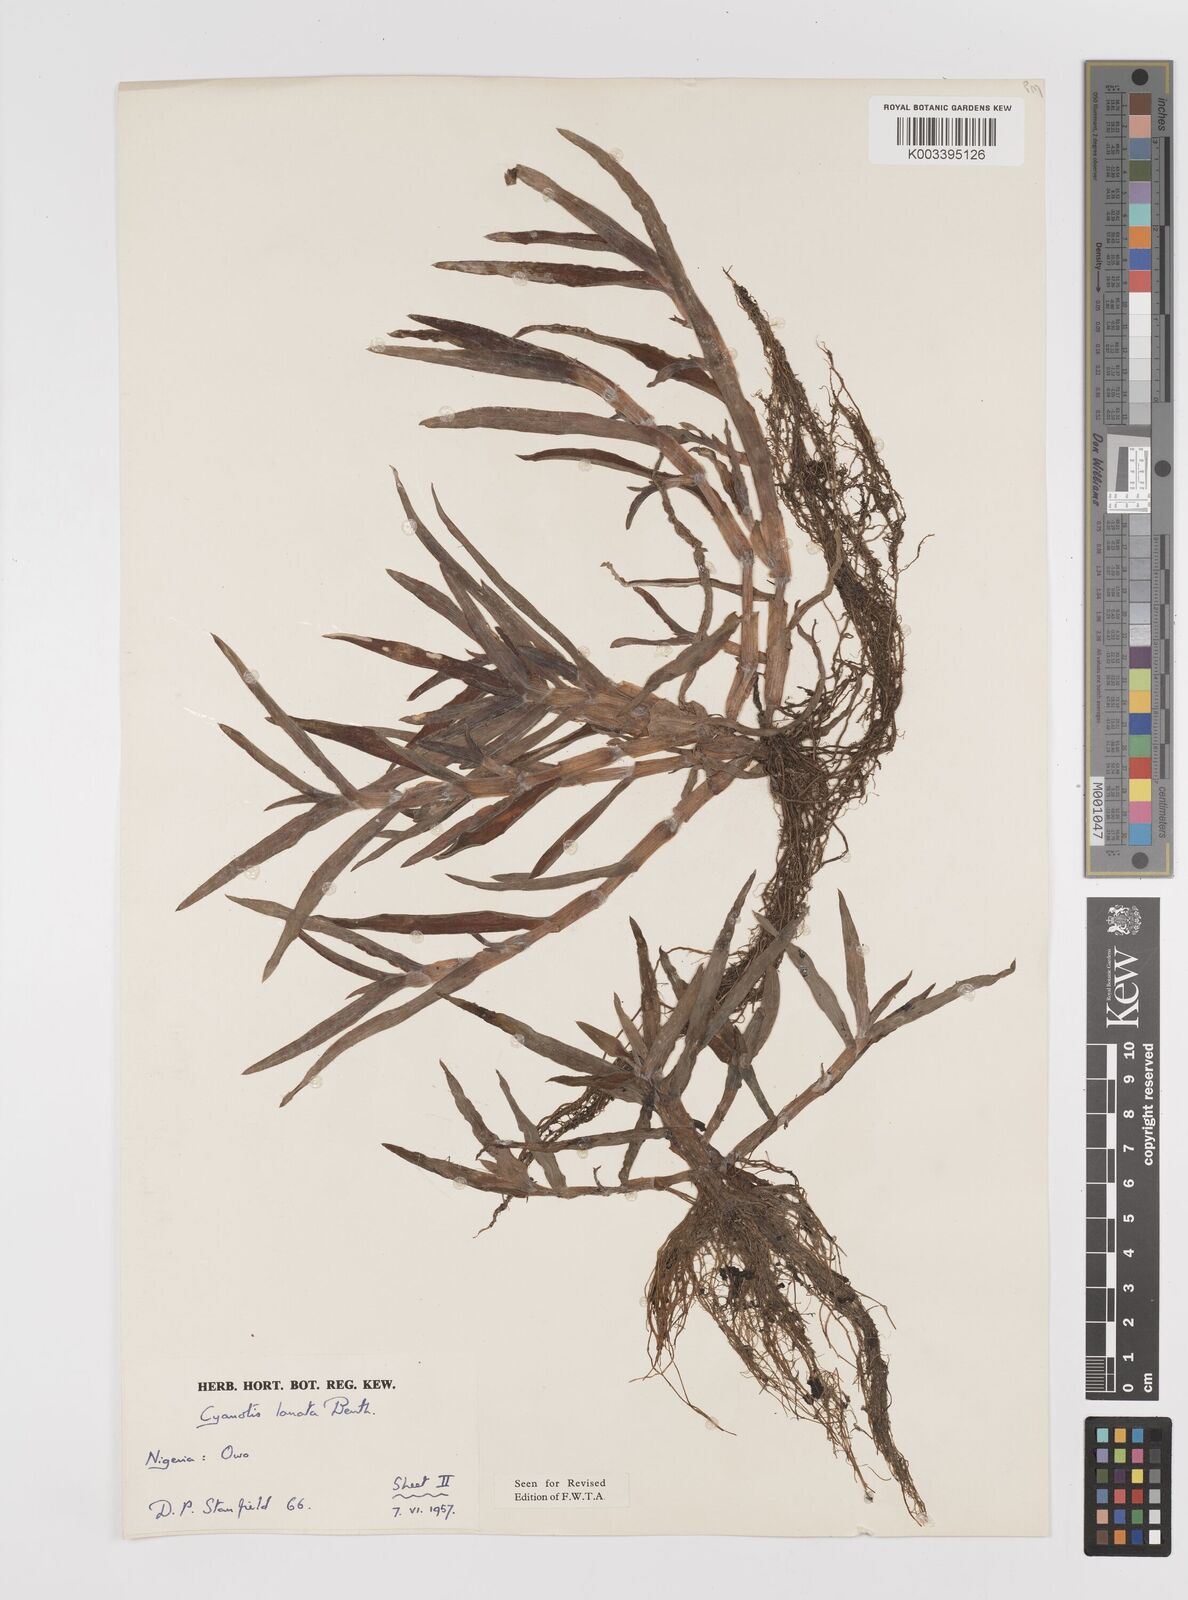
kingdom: Plantae
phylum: Tracheophyta
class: Liliopsida
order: Commelinales
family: Commelinaceae
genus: Cyanotis
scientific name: Cyanotis lanata
